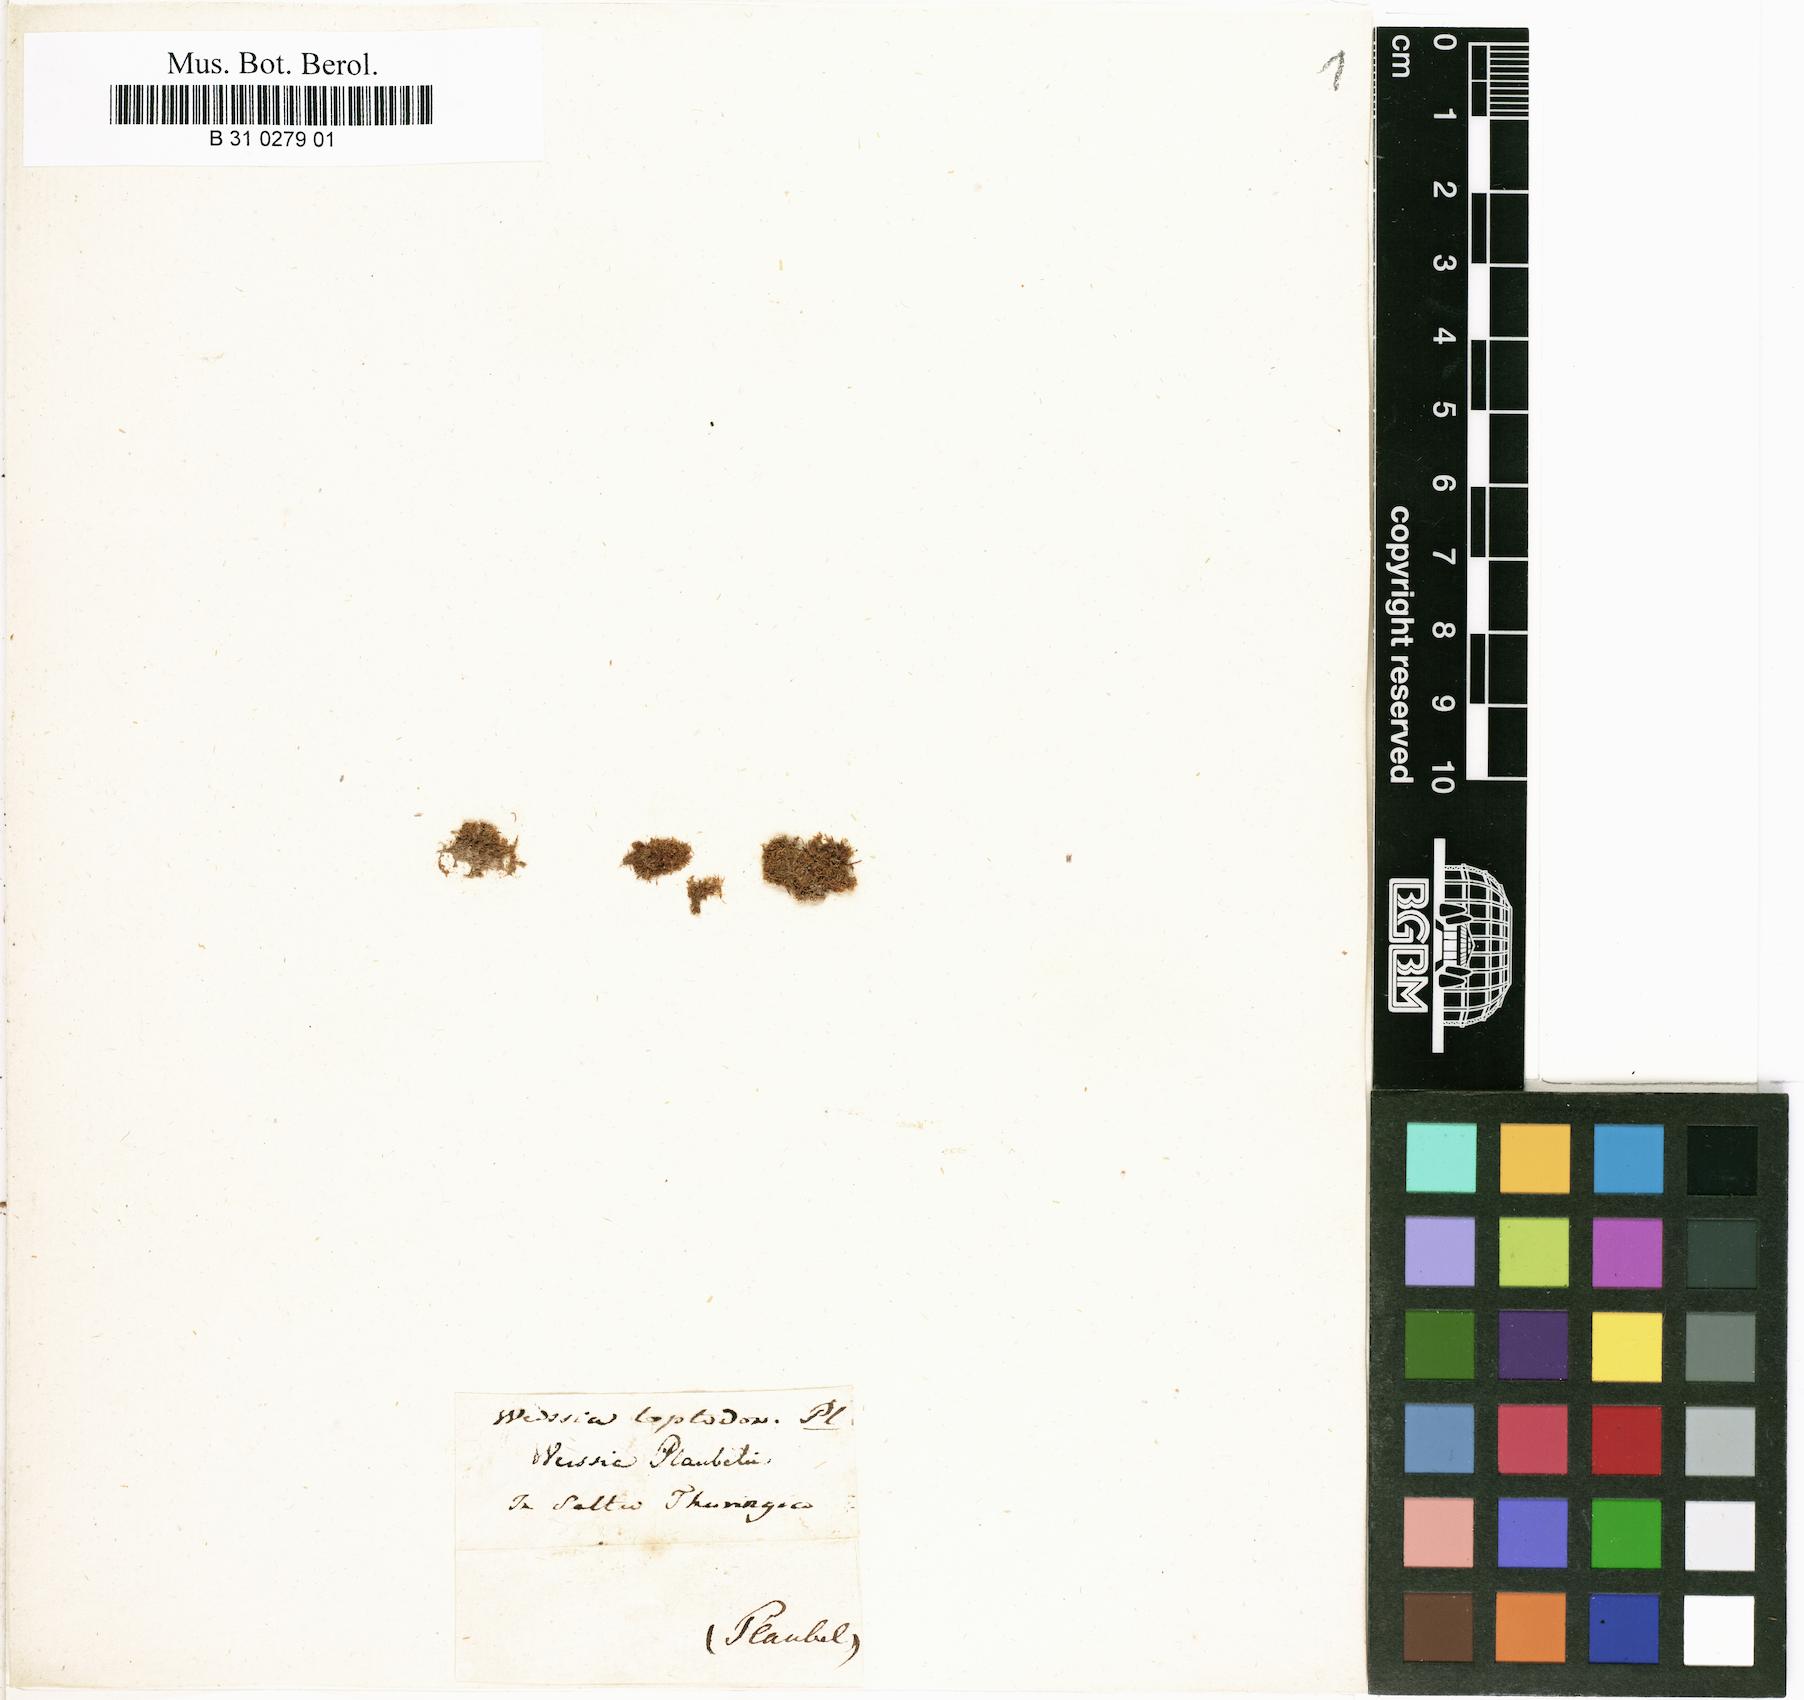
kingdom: Plantae
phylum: Bryophyta
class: Bryopsida
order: Dicranales
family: Rhabdoweisiaceae
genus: Rhabdoweisia
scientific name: Rhabdoweisia fugax
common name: Dwarf streak-moss
